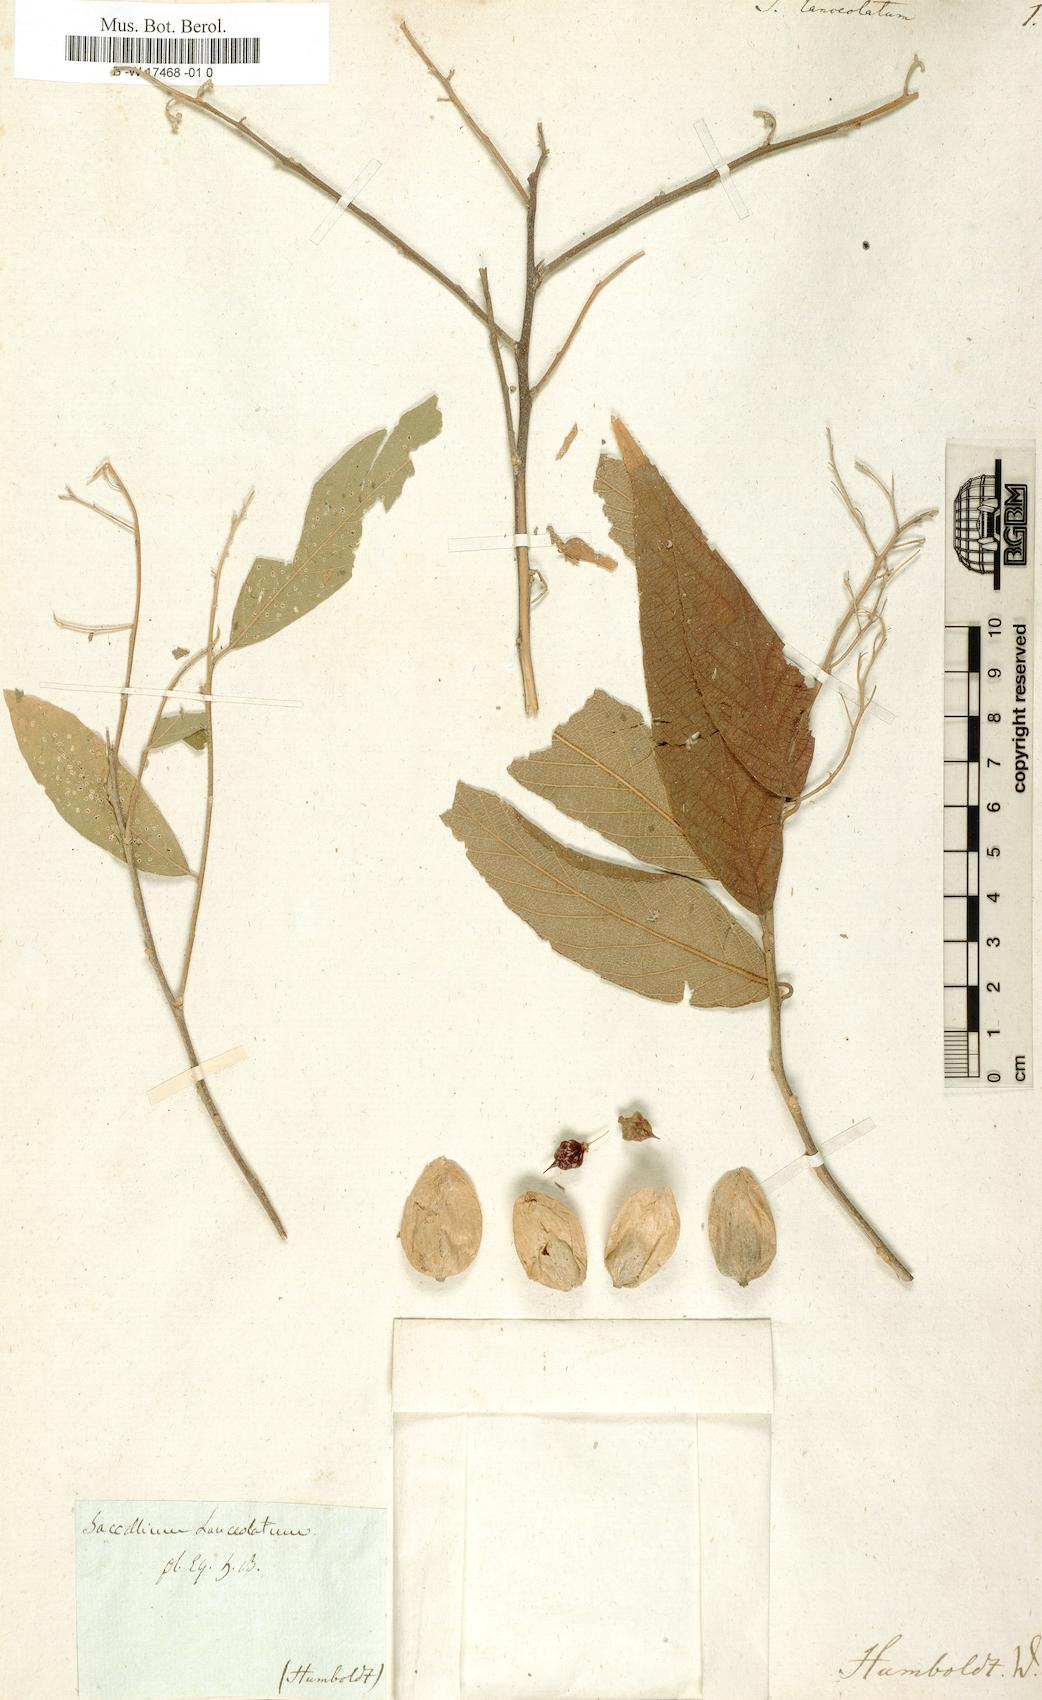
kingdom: Plantae
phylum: Tracheophyta
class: Magnoliopsida
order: Boraginales
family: Cordiaceae
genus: Cordia
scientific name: Cordia saccellia
